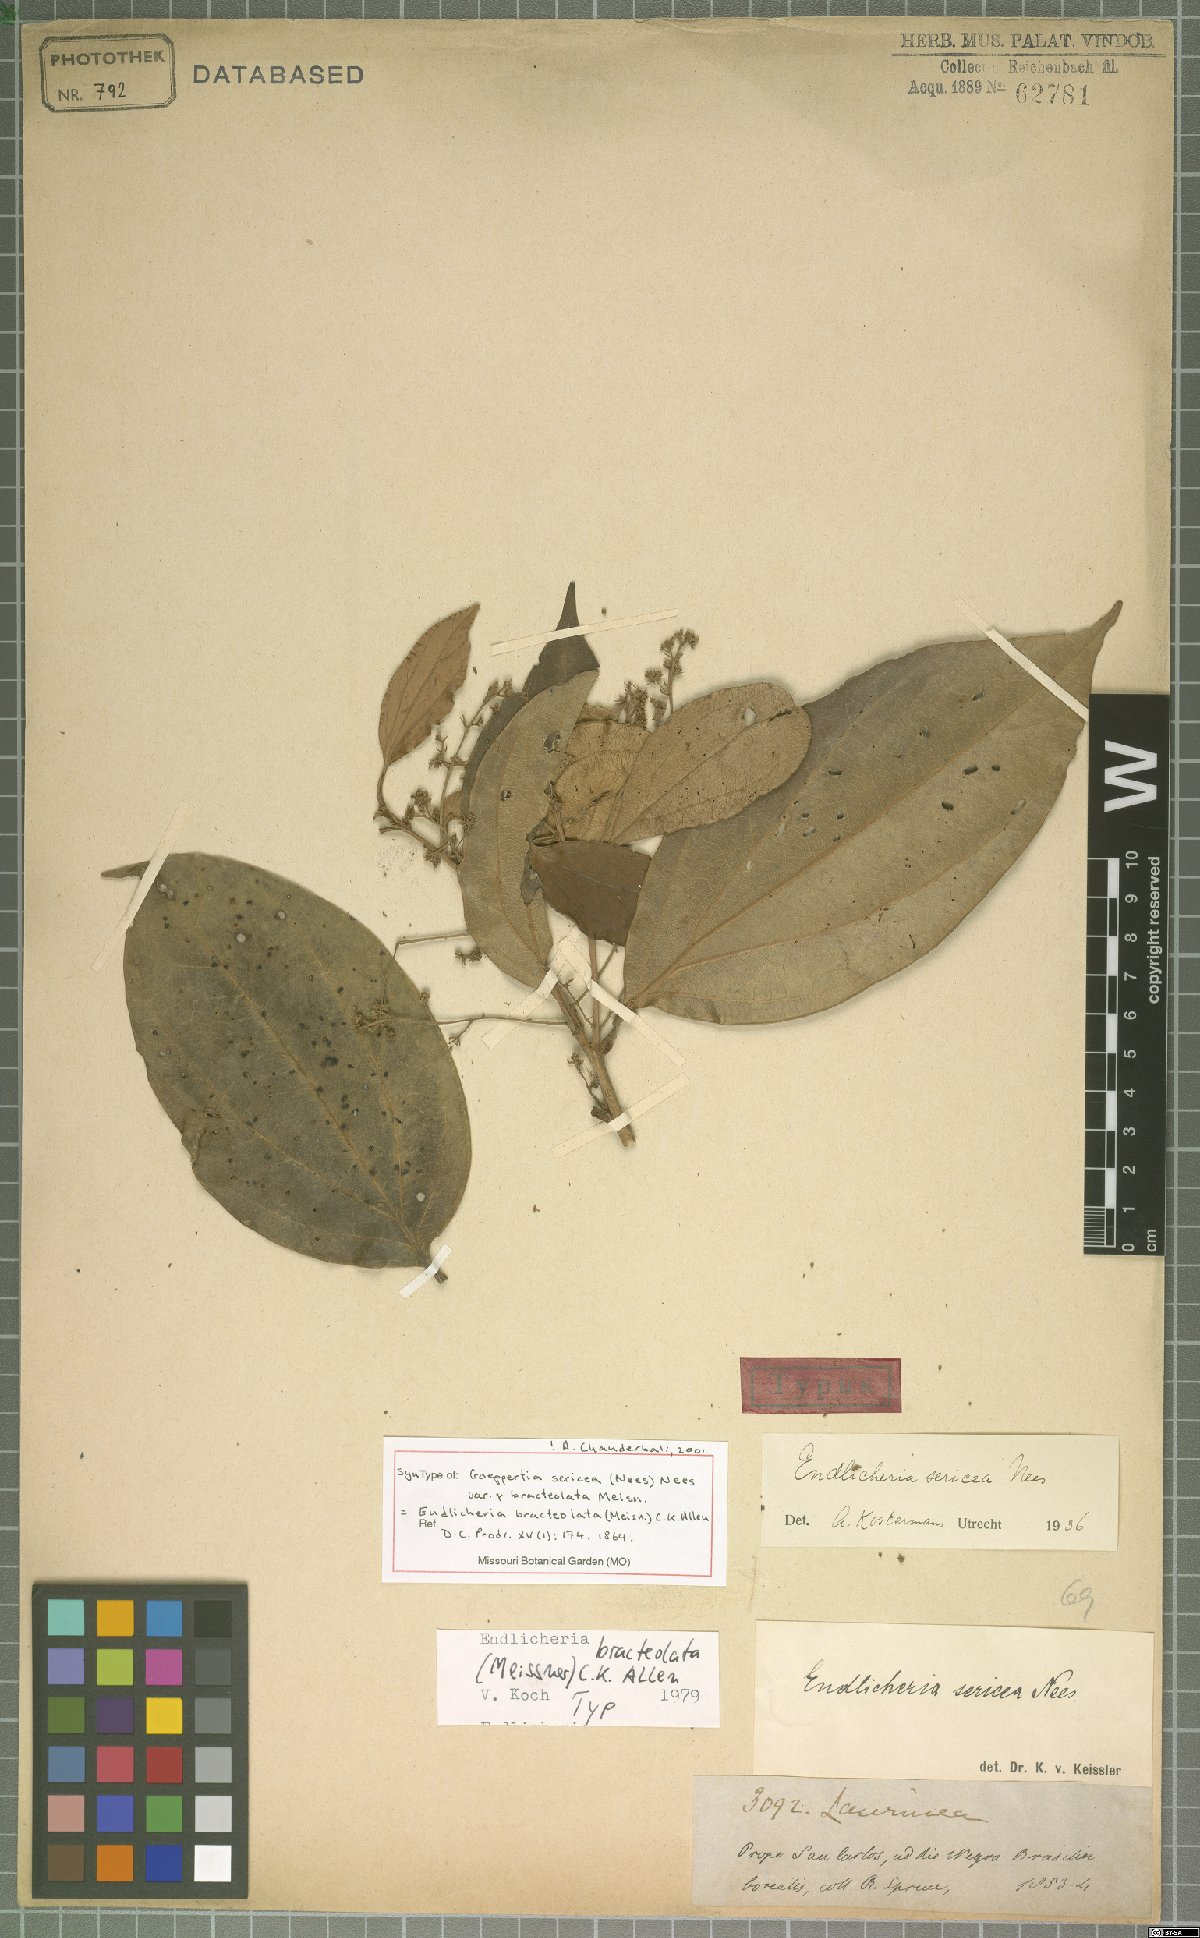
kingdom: Plantae
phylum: Tracheophyta
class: Magnoliopsida
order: Laurales
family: Lauraceae
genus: Endlicheria
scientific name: Endlicheria bracteolata
